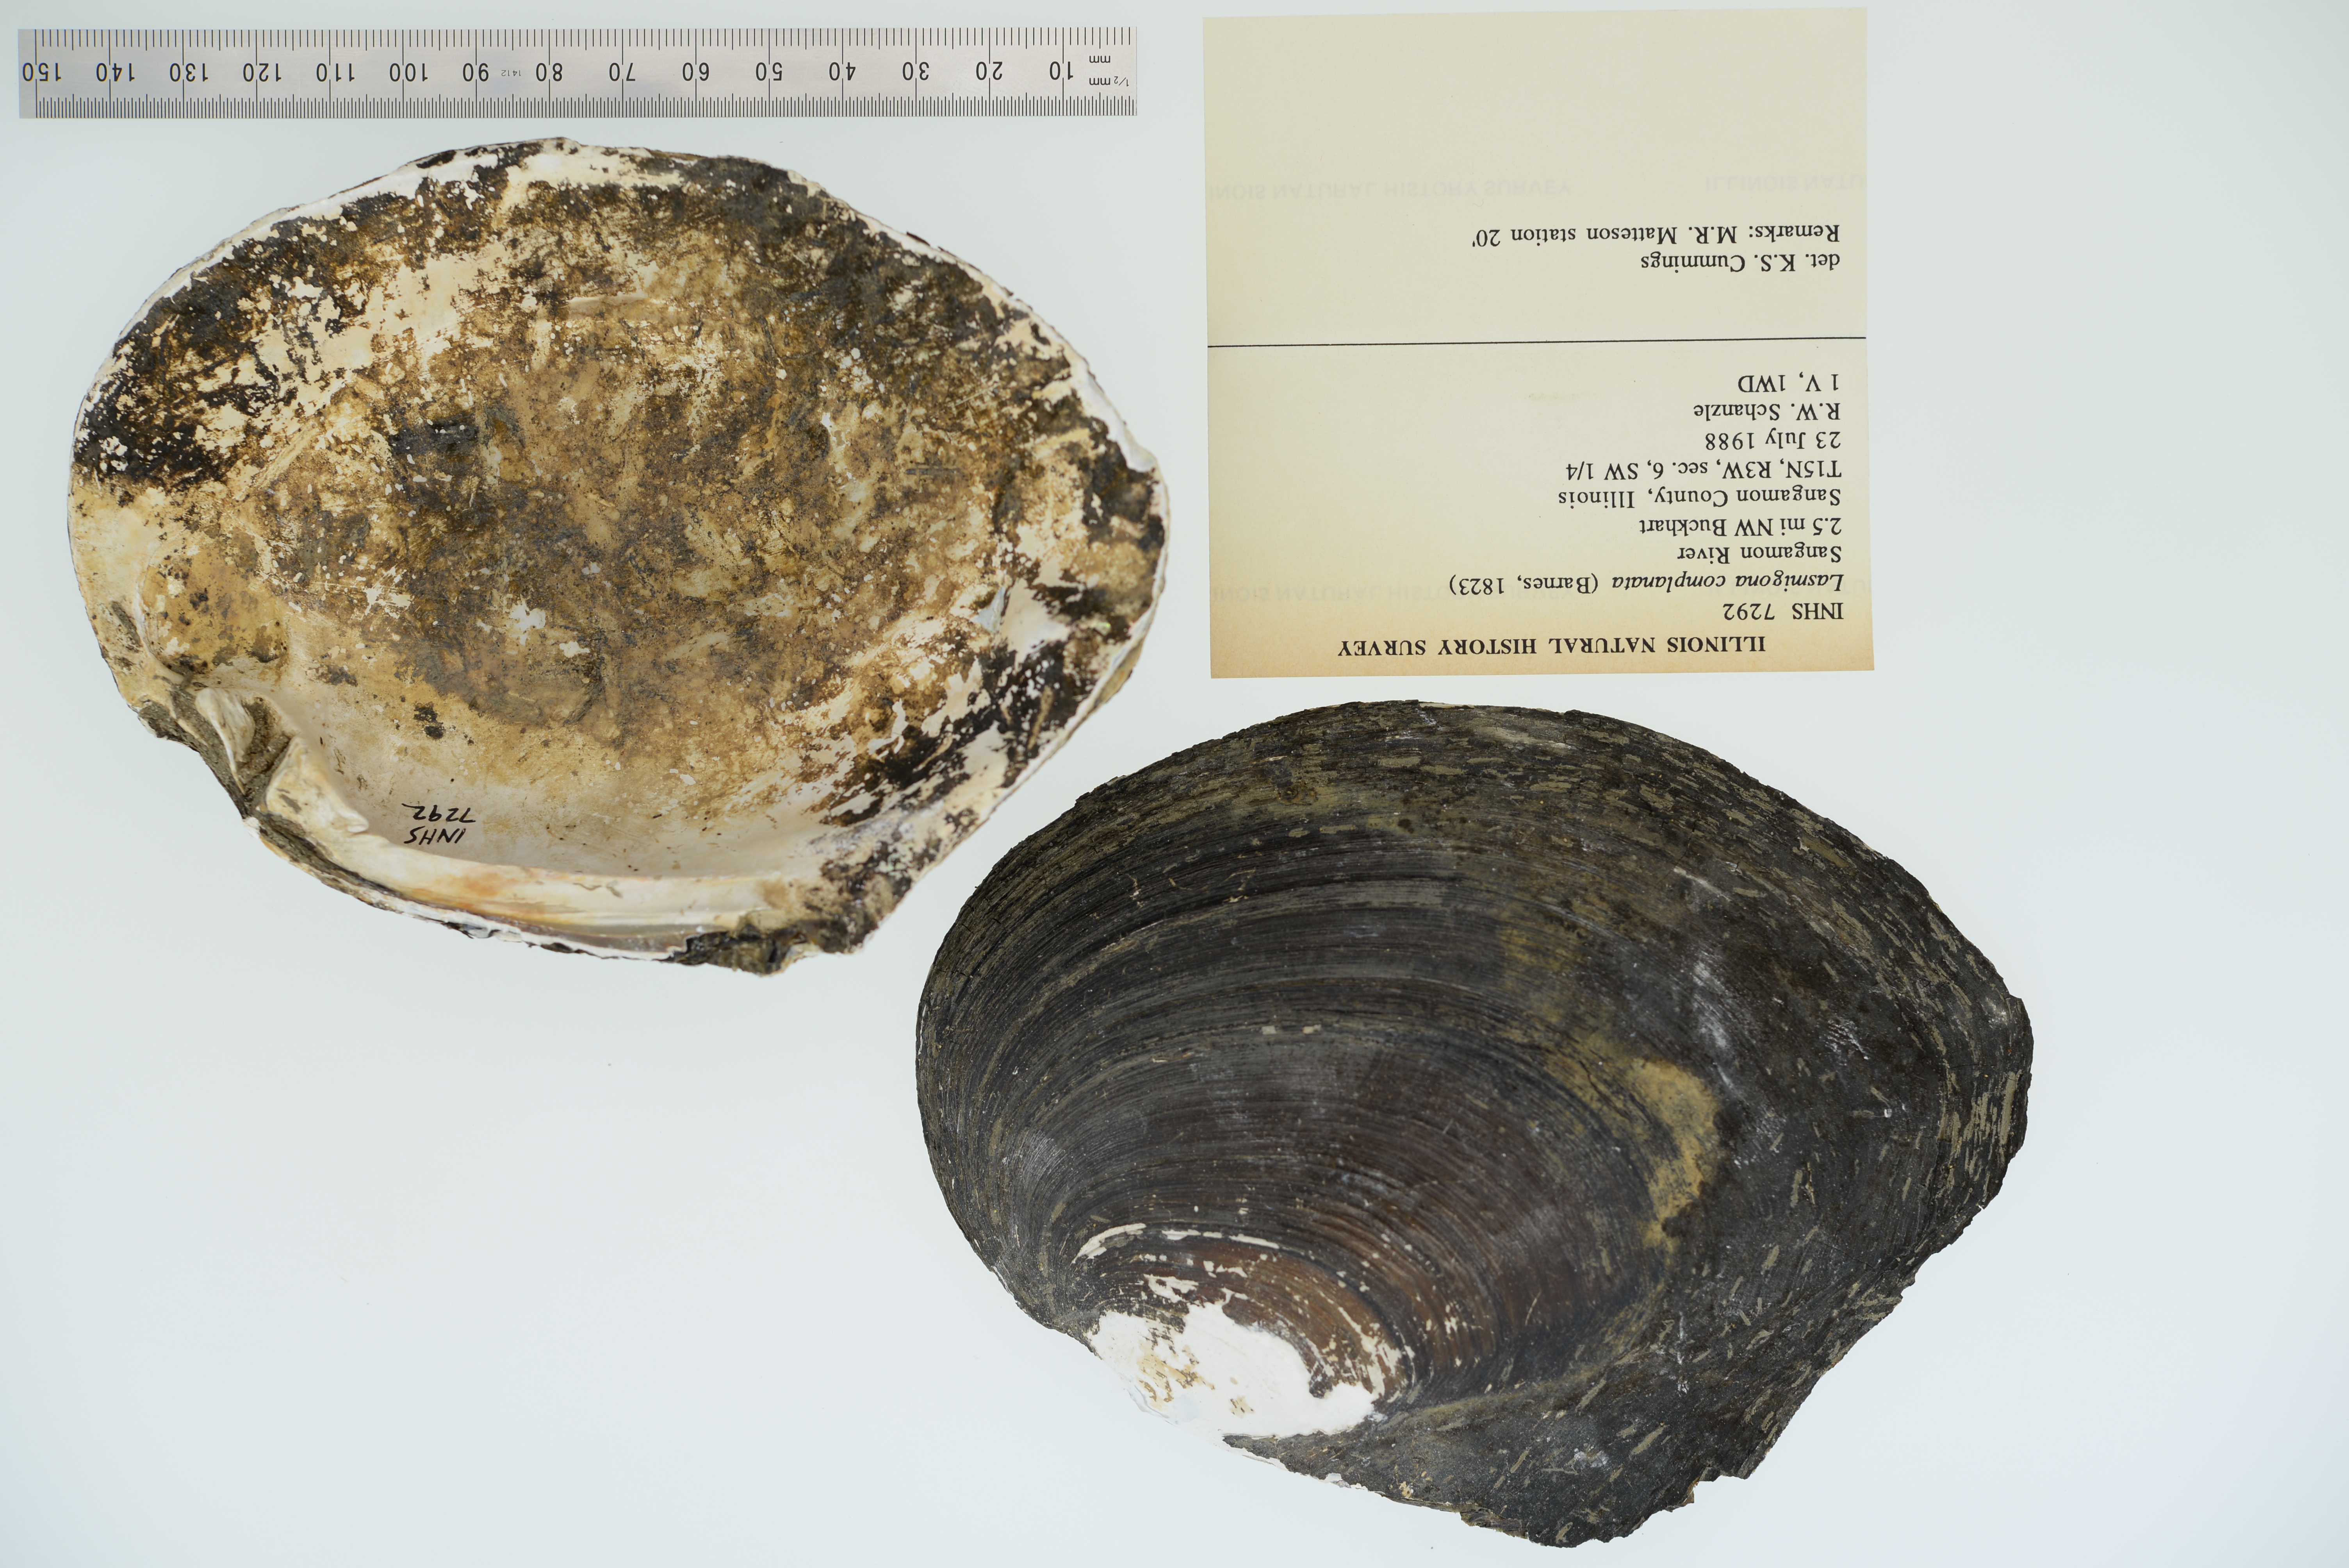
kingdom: Animalia
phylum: Mollusca
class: Bivalvia
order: Unionida
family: Unionidae
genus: Lasmigona
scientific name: Lasmigona complanata
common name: White heelsplitter
